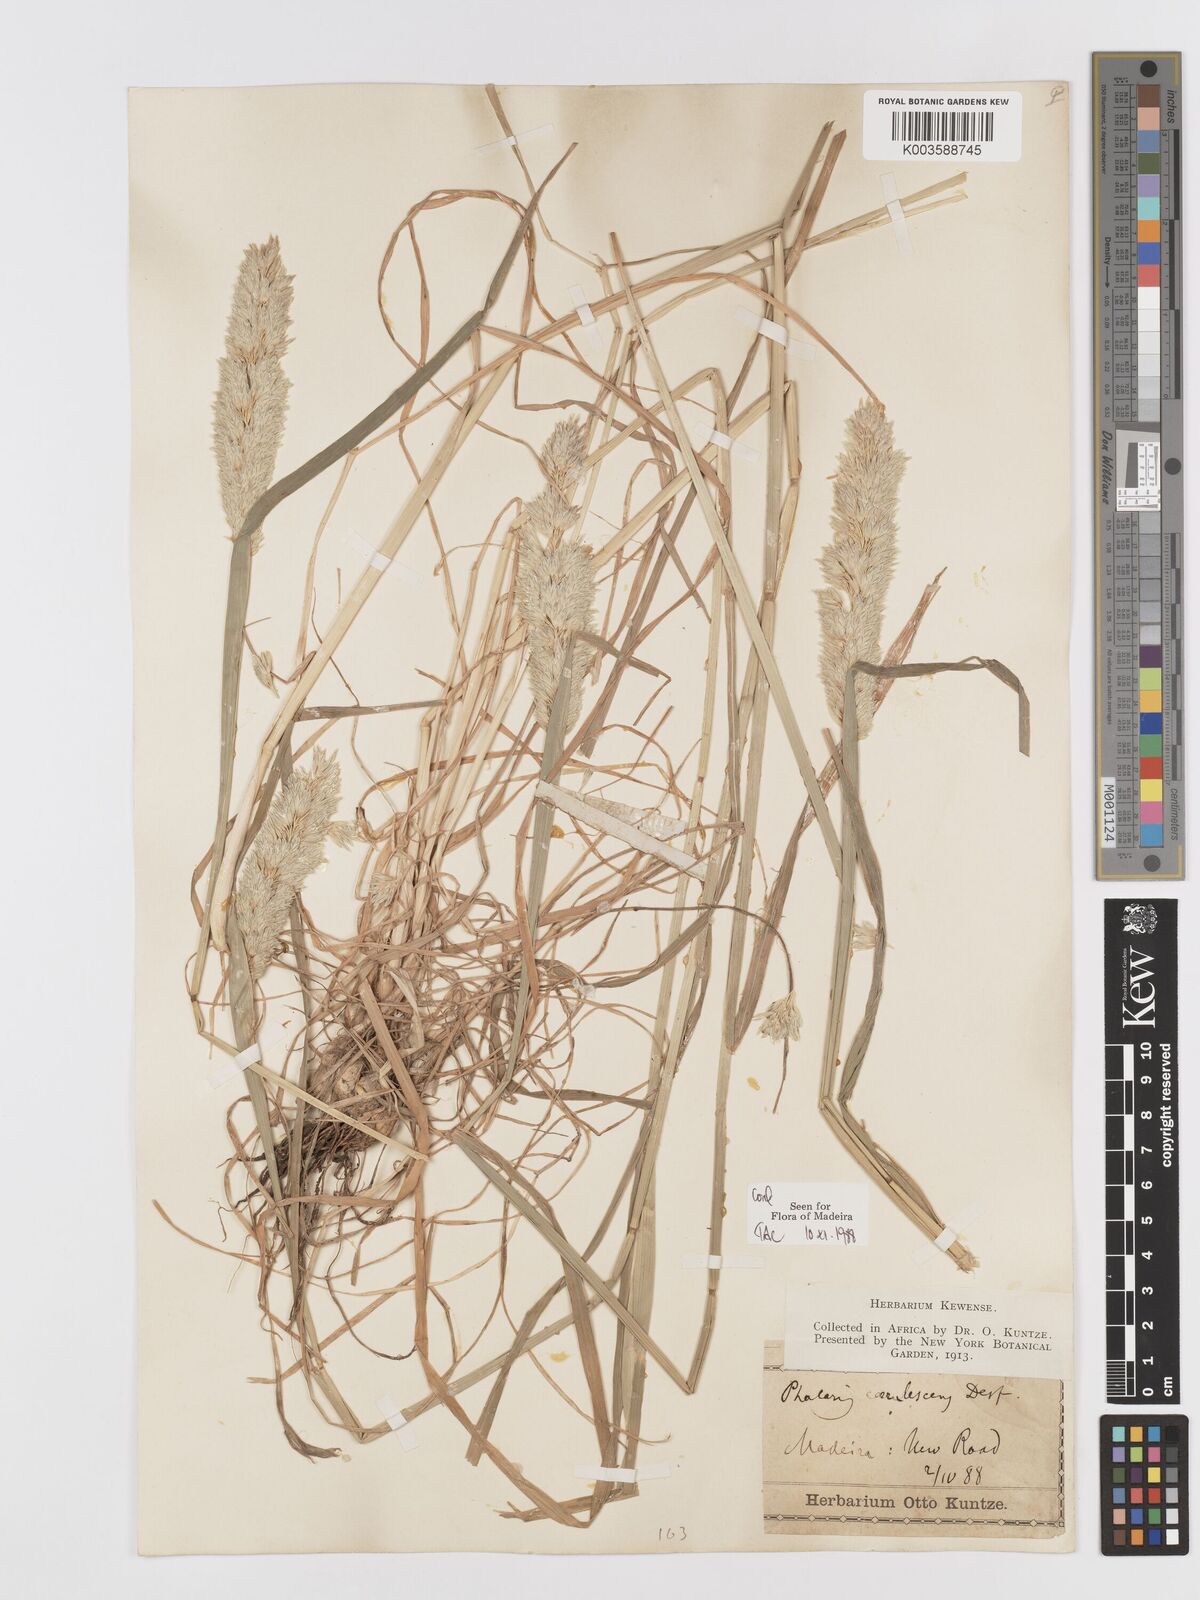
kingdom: Plantae
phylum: Tracheophyta
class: Liliopsida
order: Poales
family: Poaceae
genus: Phalaris
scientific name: Phalaris coerulescens
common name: Sunolgrass
